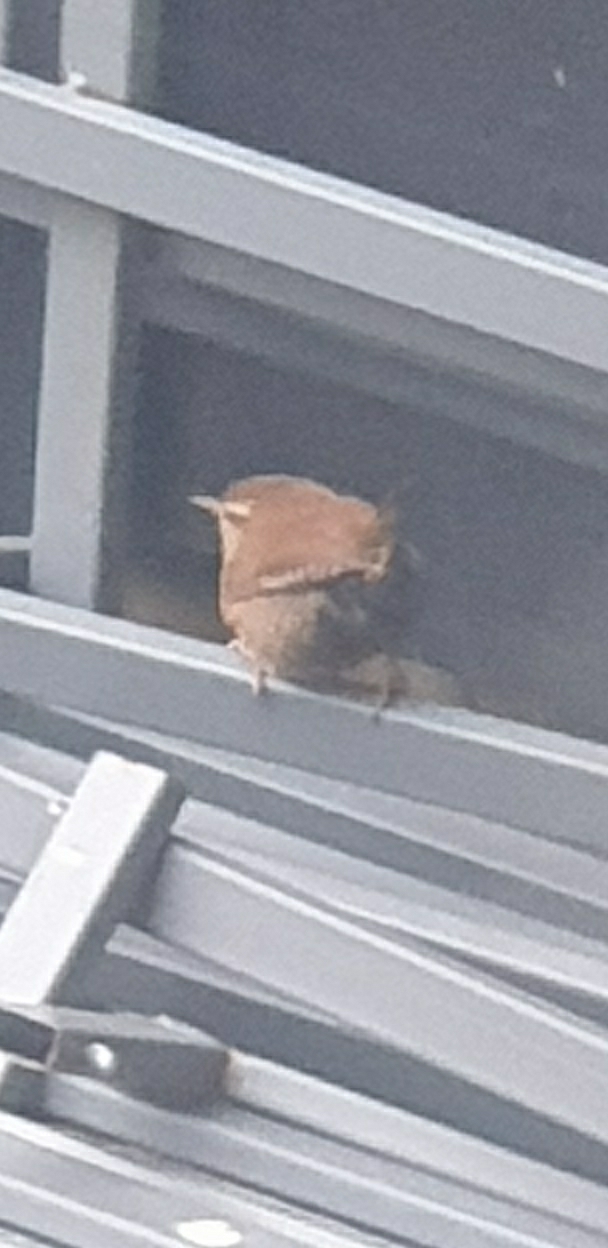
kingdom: Animalia
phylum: Chordata
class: Aves
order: Passeriformes
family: Troglodytidae
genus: Troglodytes
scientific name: Troglodytes troglodytes
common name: Gærdesmutte
